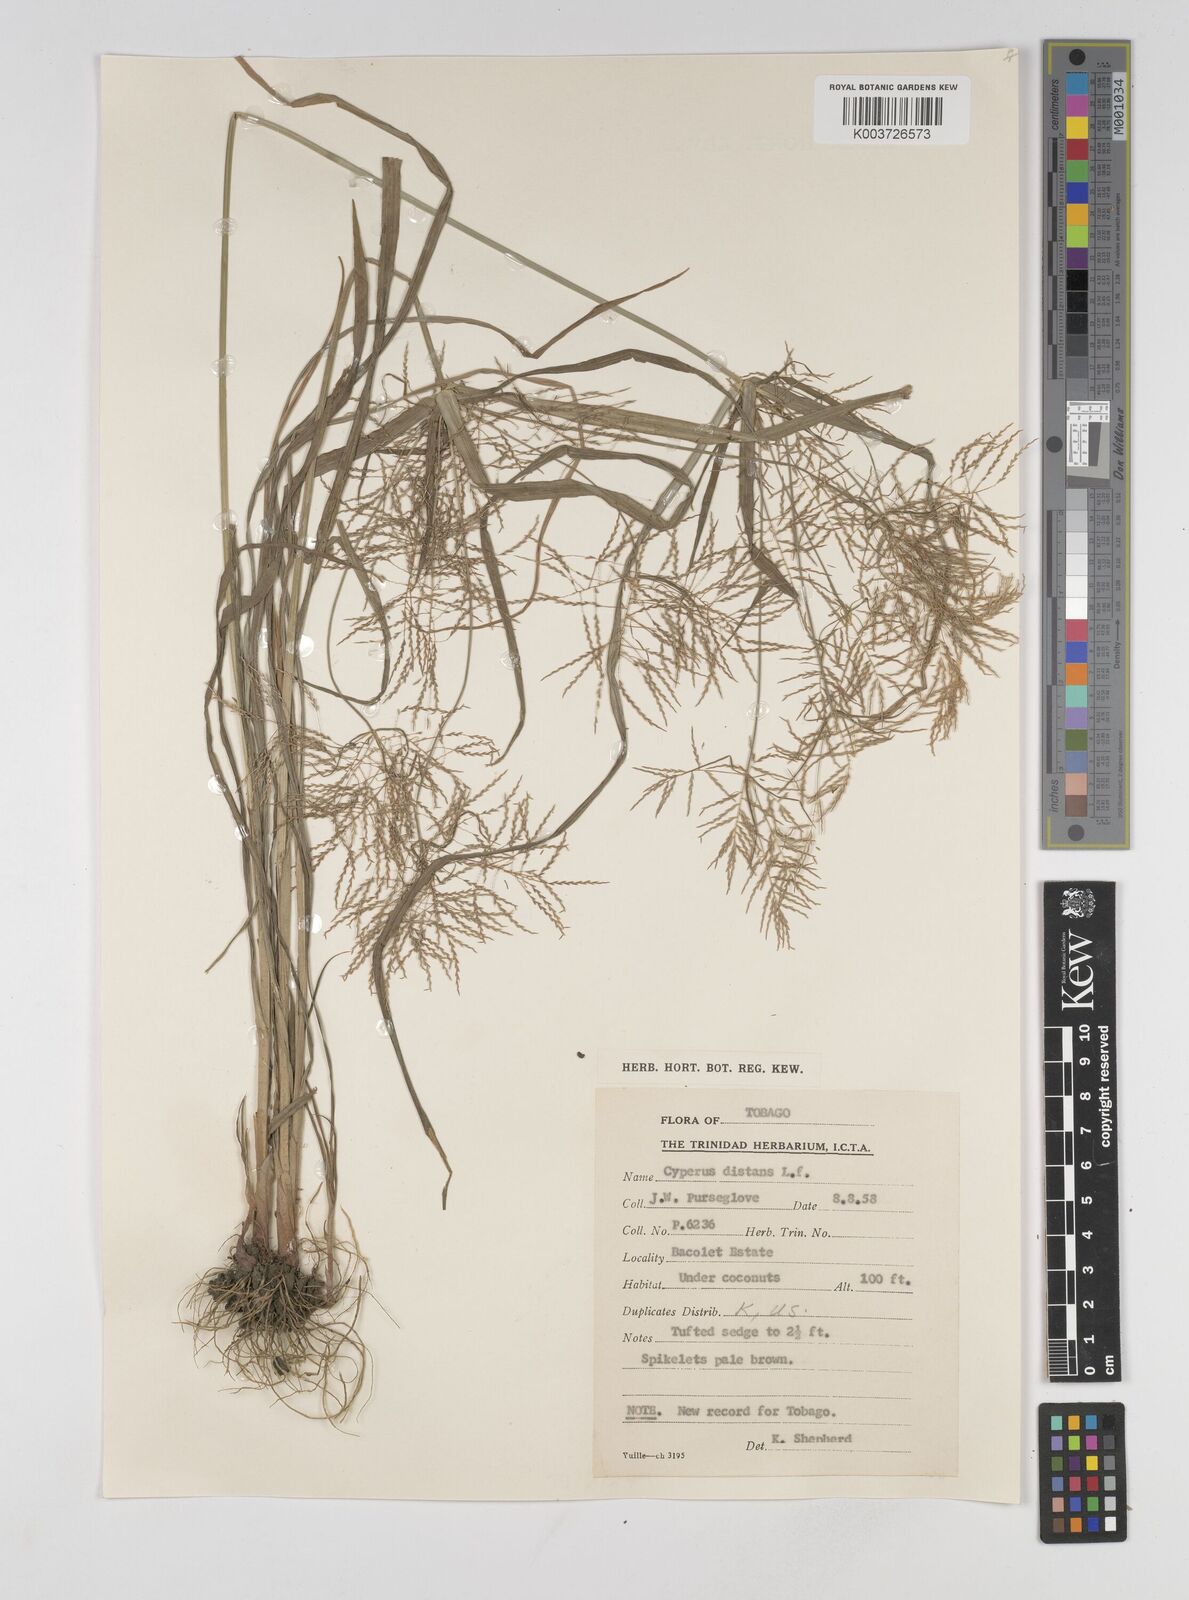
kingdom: Plantae
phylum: Tracheophyta
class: Liliopsida
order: Poales
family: Cyperaceae
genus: Cyperus
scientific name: Cyperus distans
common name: Slender cyperus
